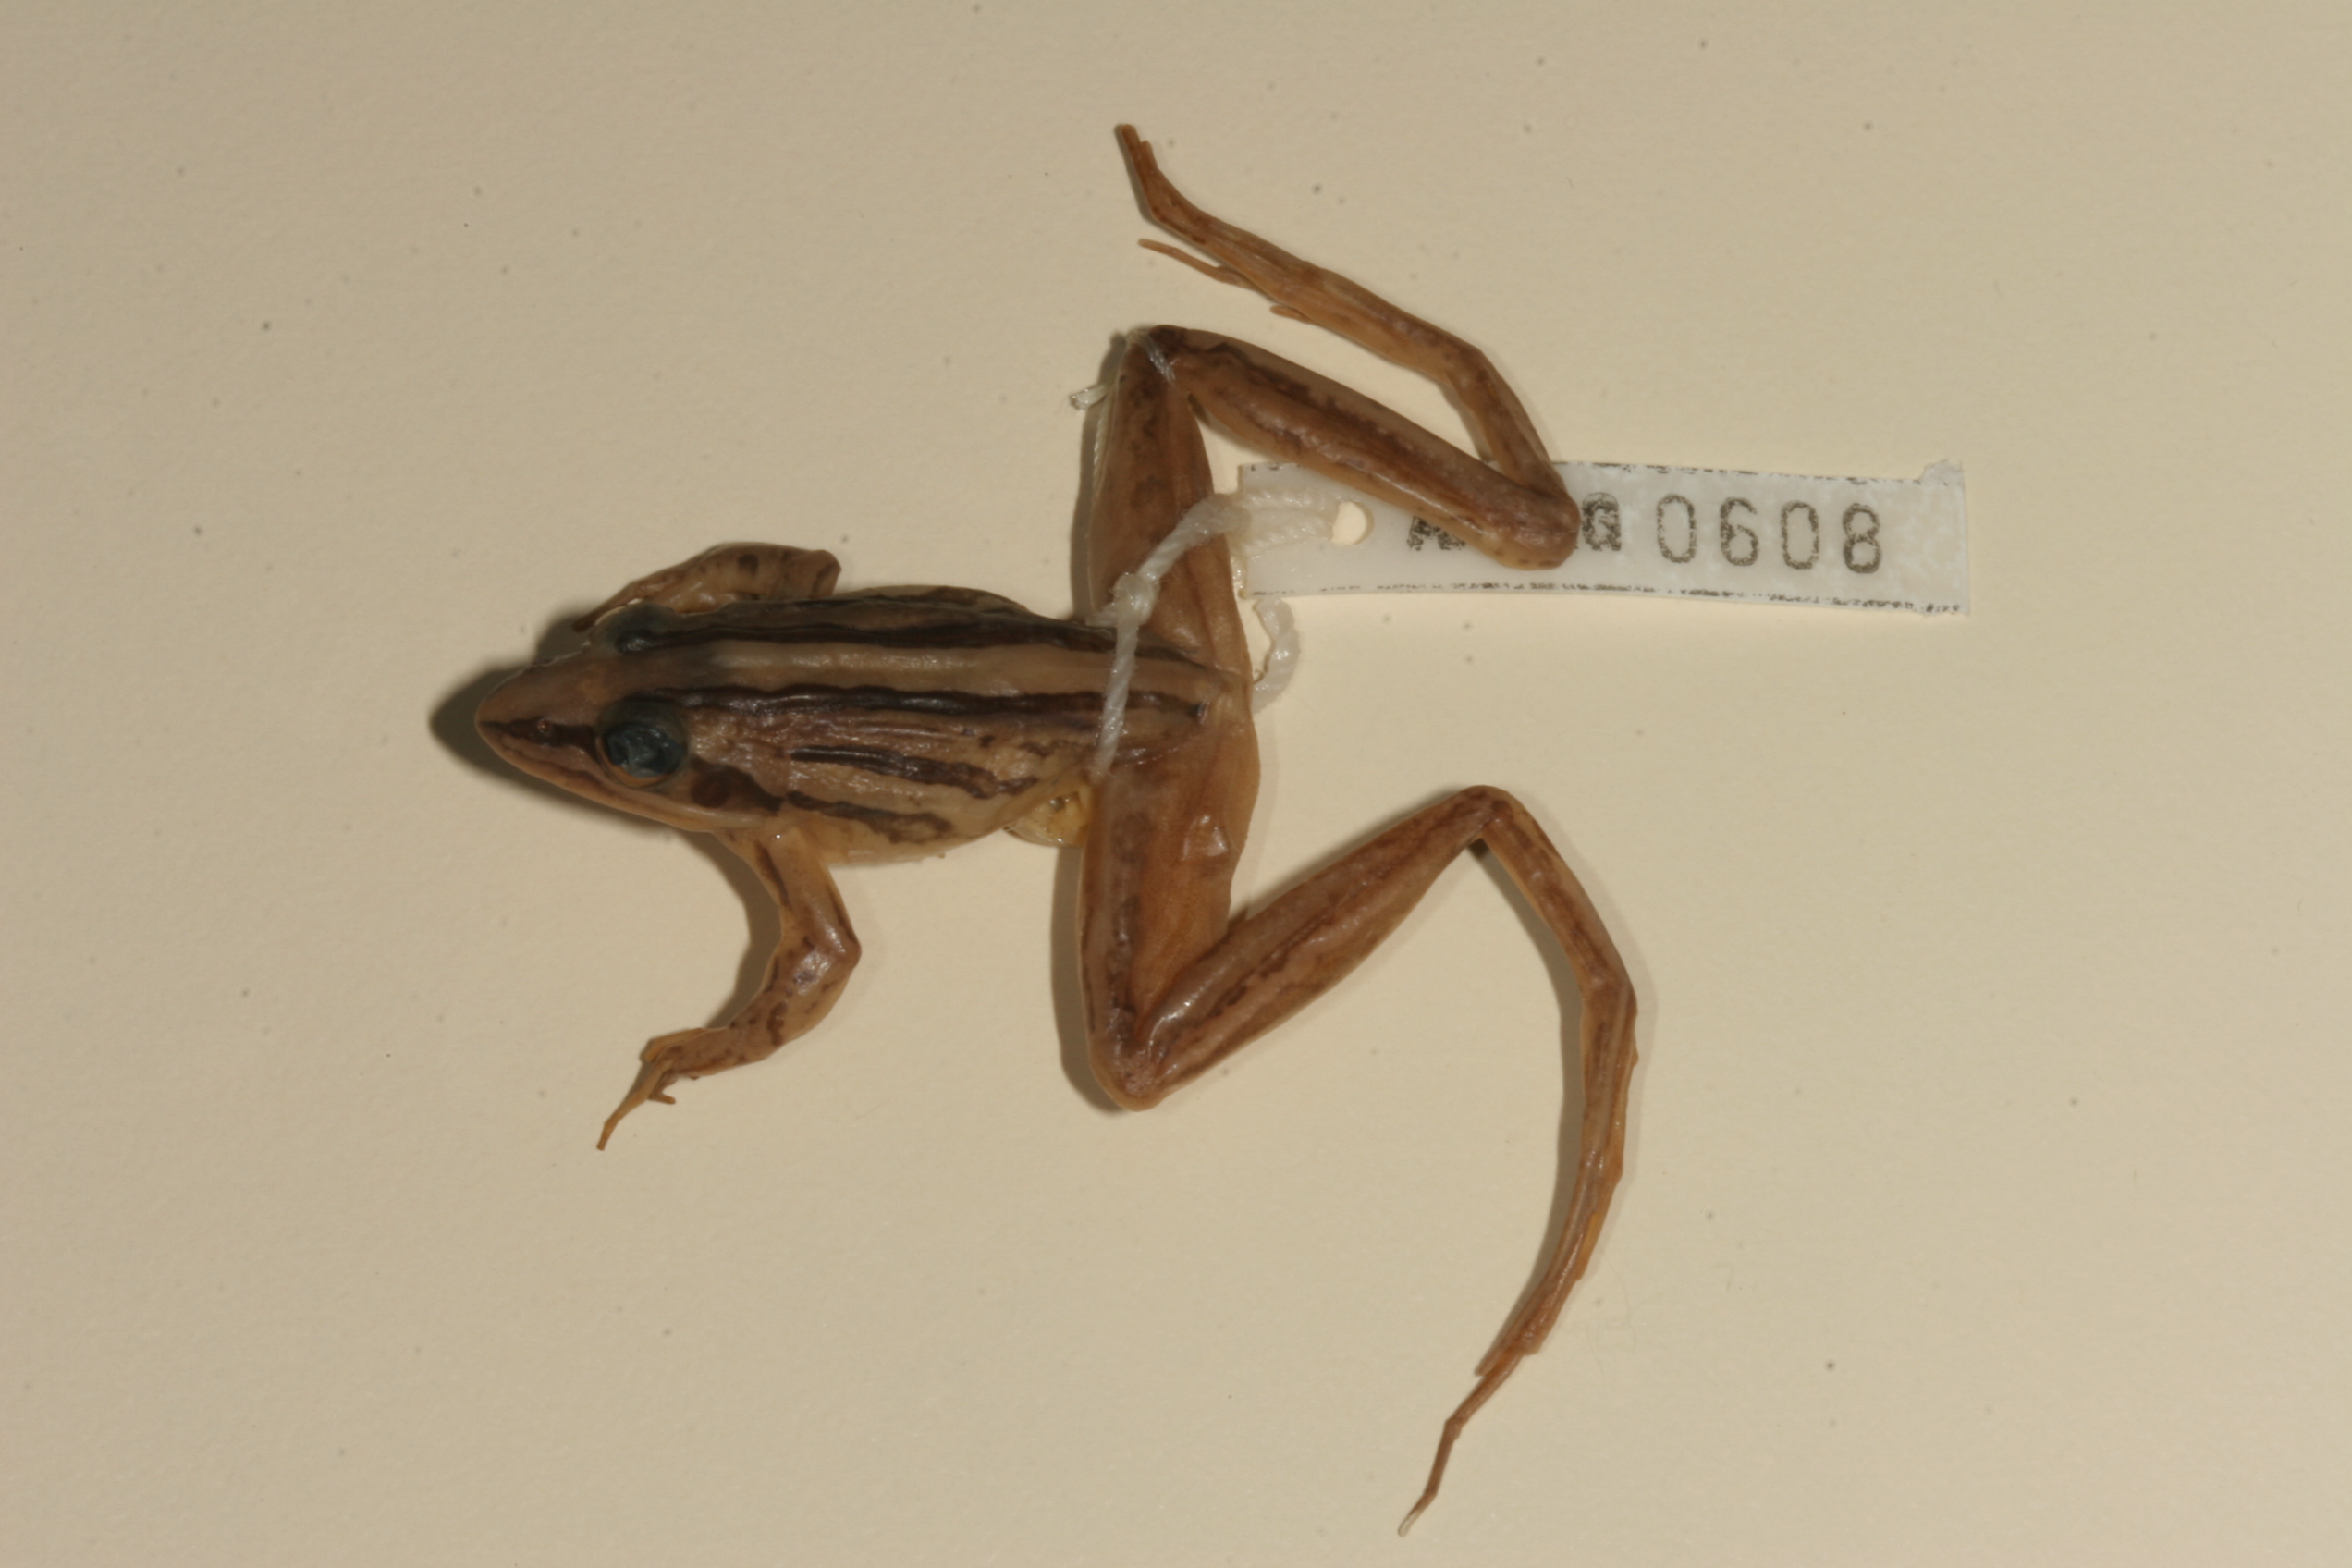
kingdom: Animalia
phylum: Chordata
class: Amphibia
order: Anura
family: Pyxicephalidae
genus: Strongylopus
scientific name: Strongylopus fasciatus
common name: Striped stream frog
